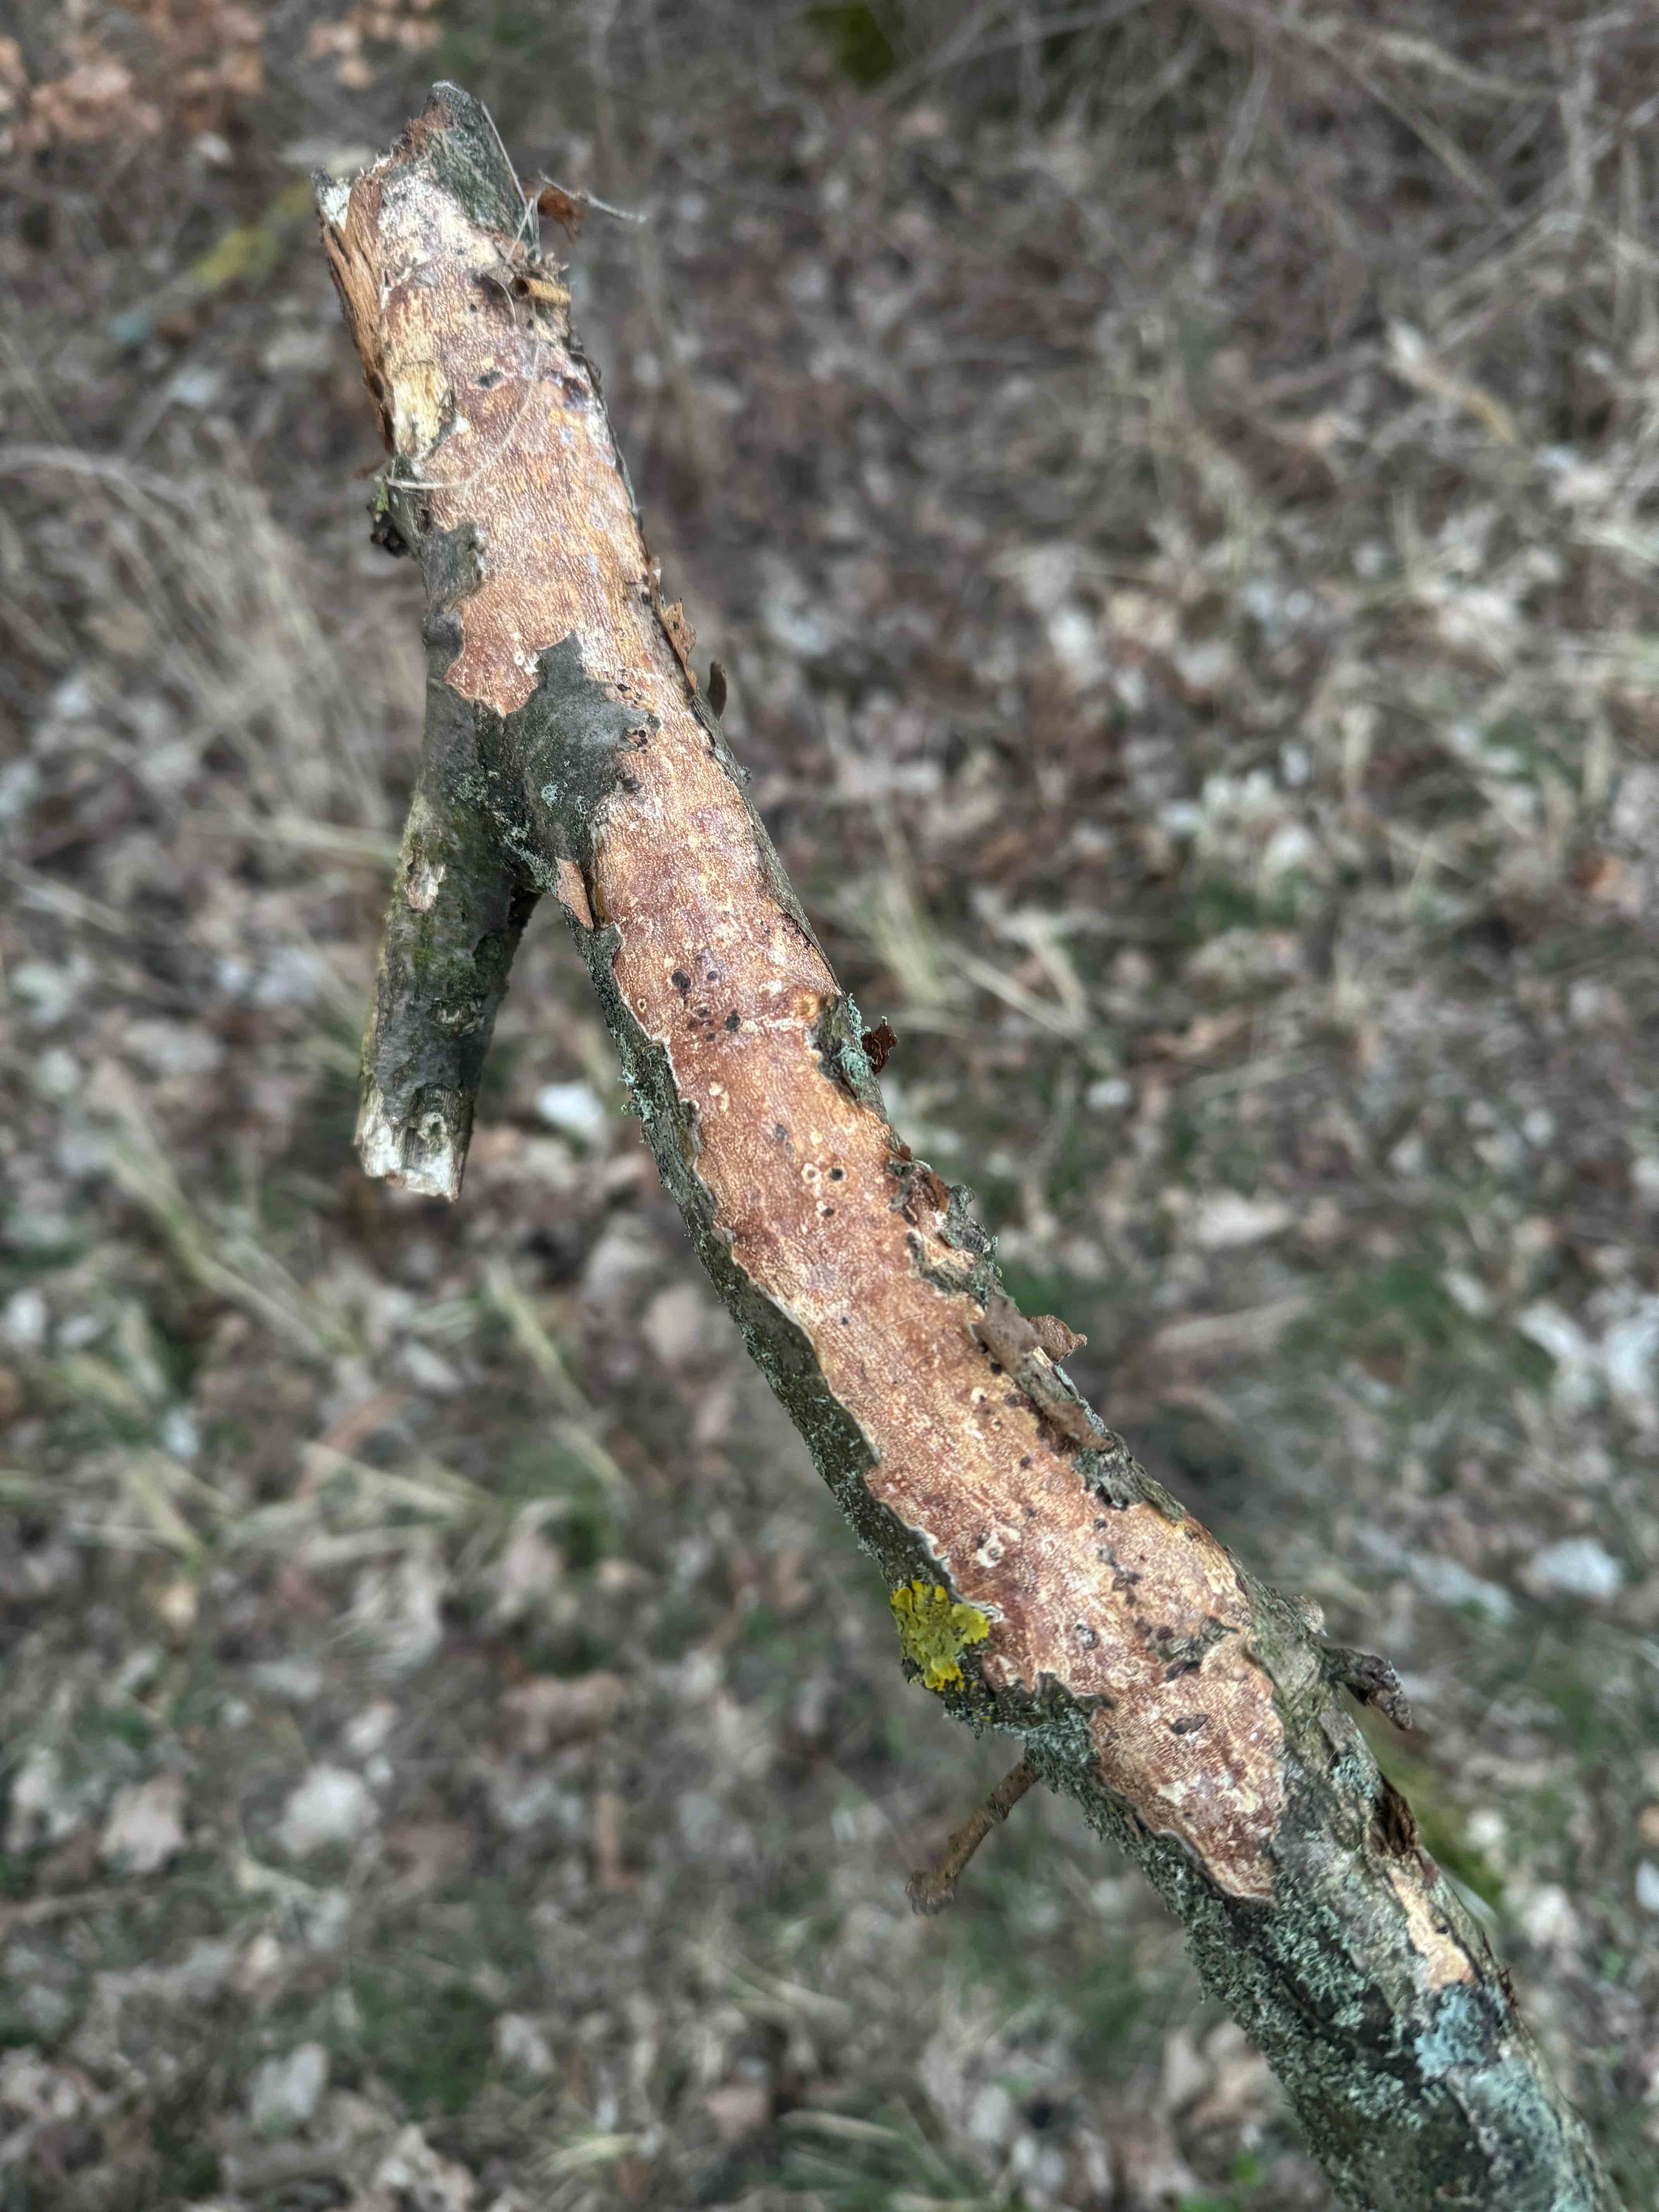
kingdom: Fungi
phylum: Basidiomycota
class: Agaricomycetes
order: Corticiales
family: Vuilleminiaceae
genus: Vuilleminia
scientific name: Vuilleminia comedens
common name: almindelig barksprænger
